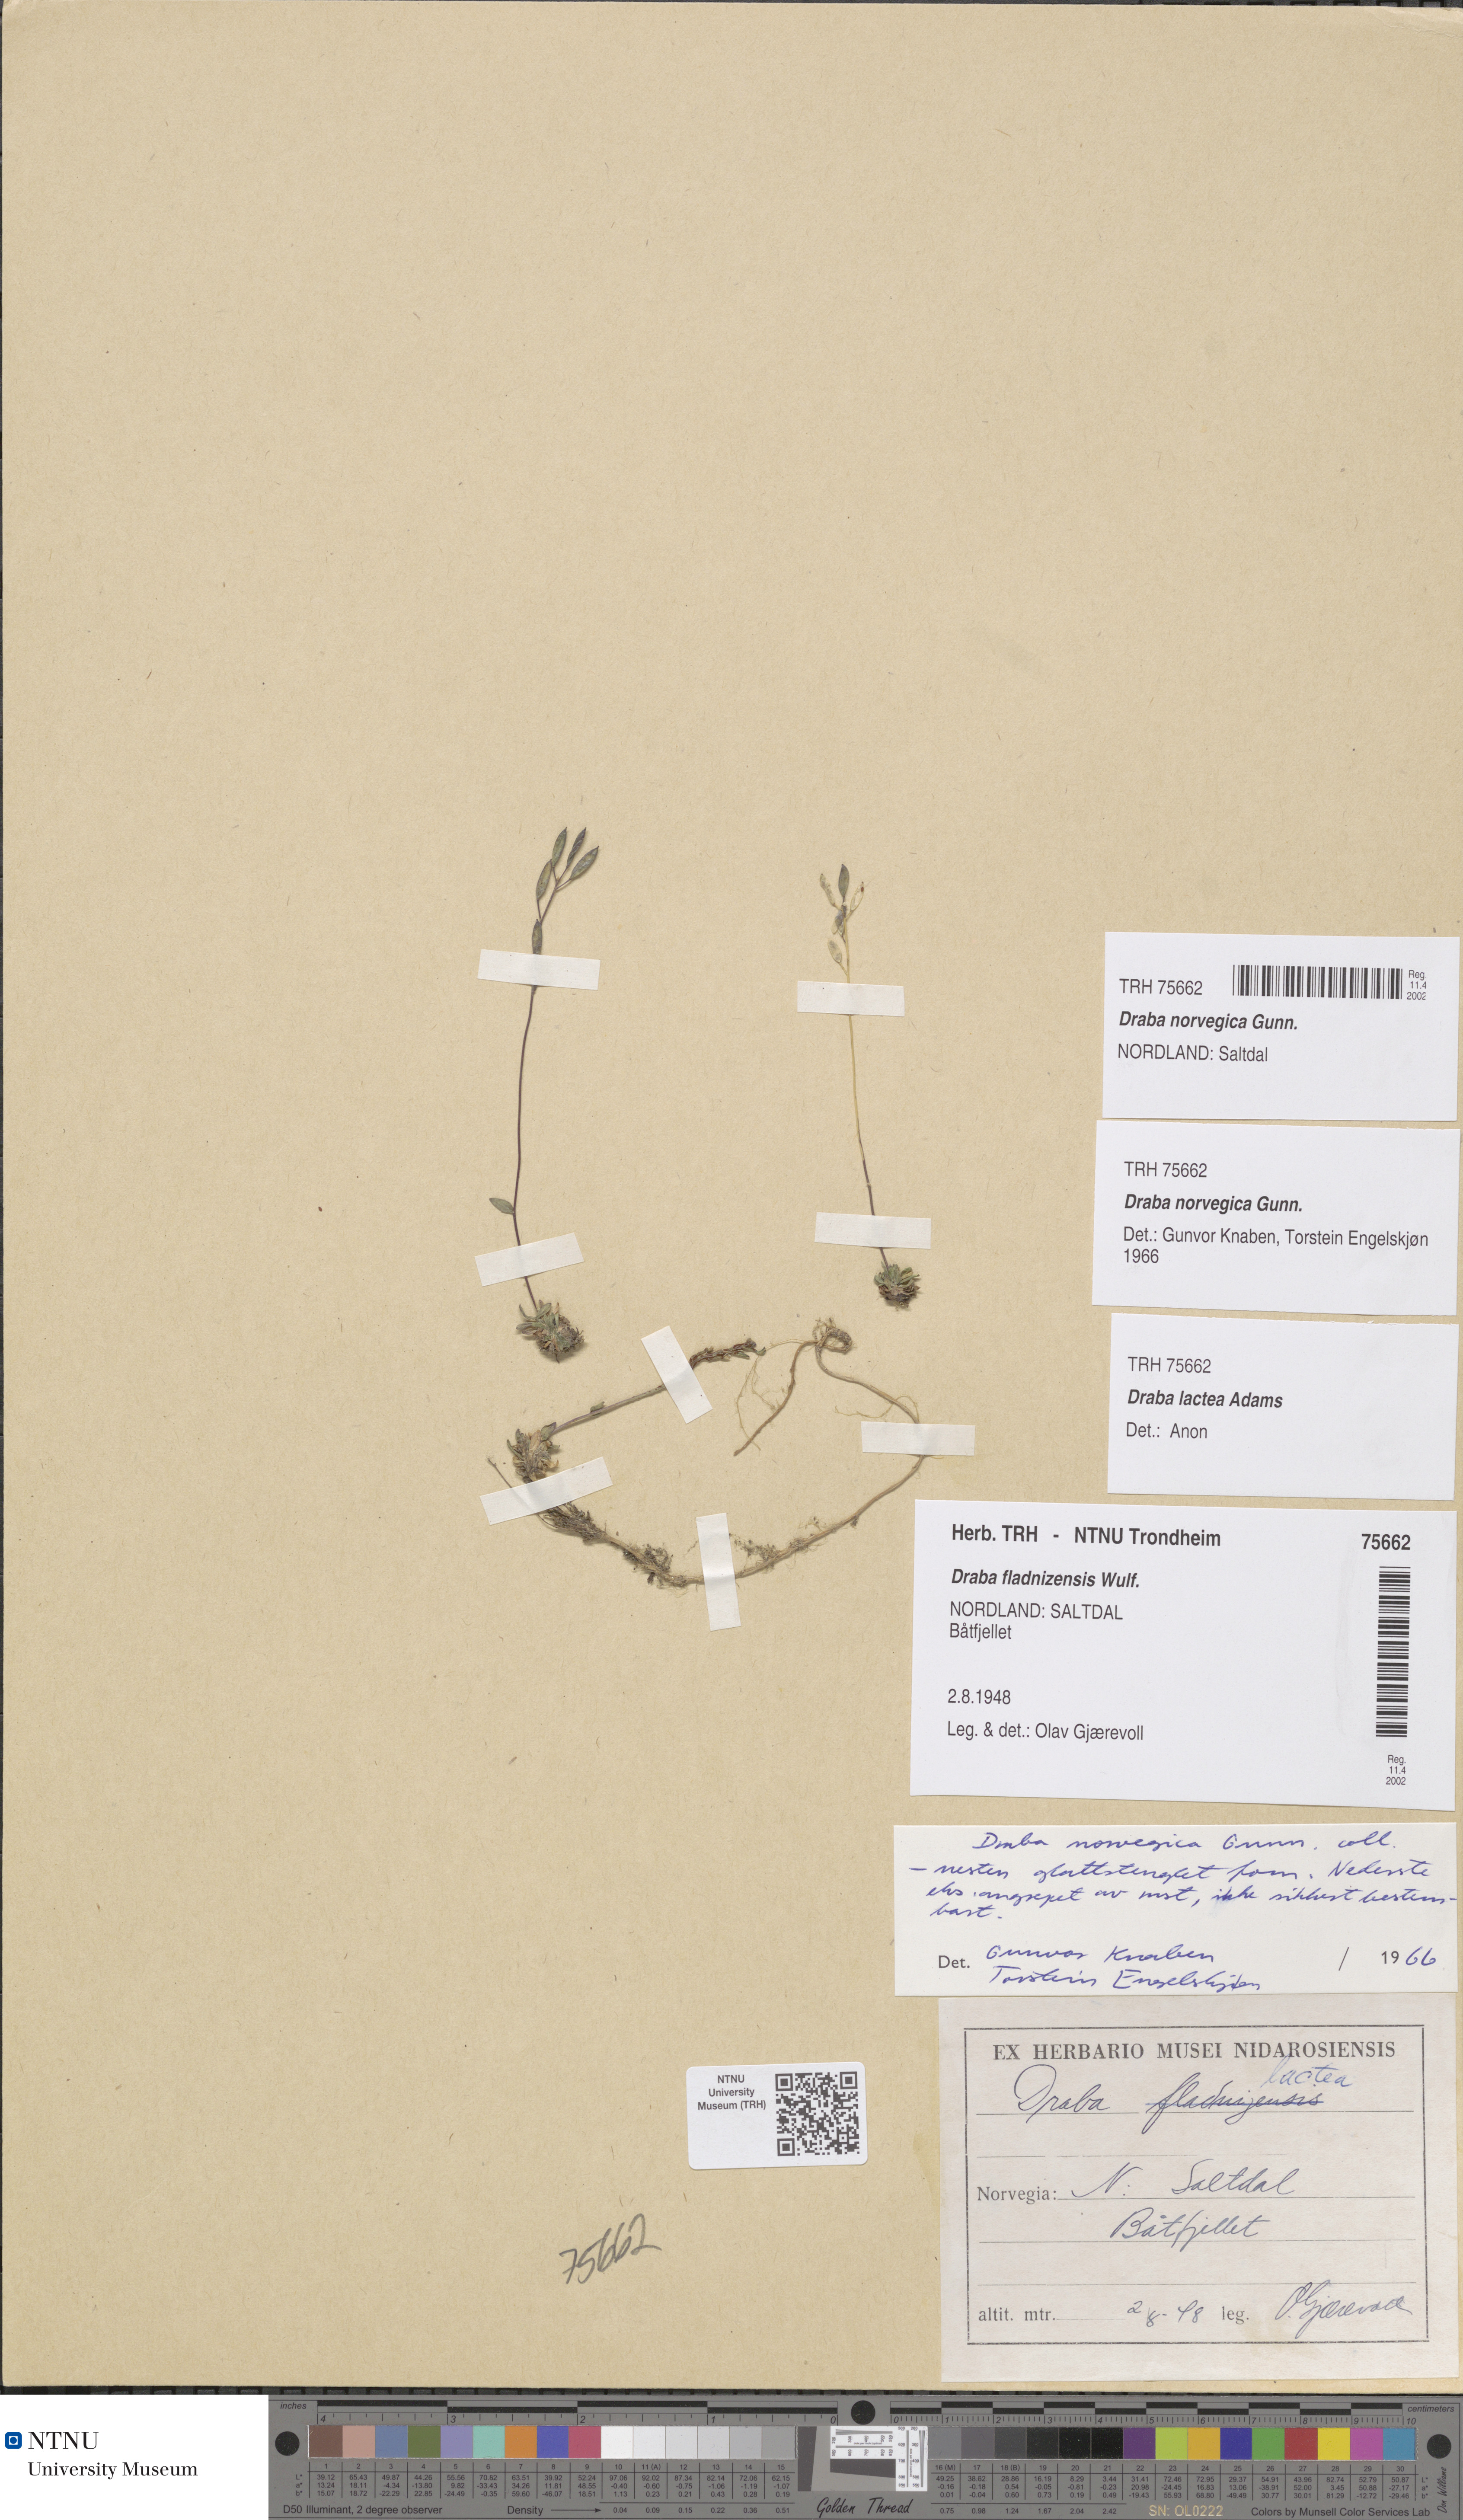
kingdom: Plantae
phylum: Tracheophyta
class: Magnoliopsida
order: Brassicales
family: Brassicaceae
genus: Draba
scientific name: Draba norvegica
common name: Rock whitlowgrass
